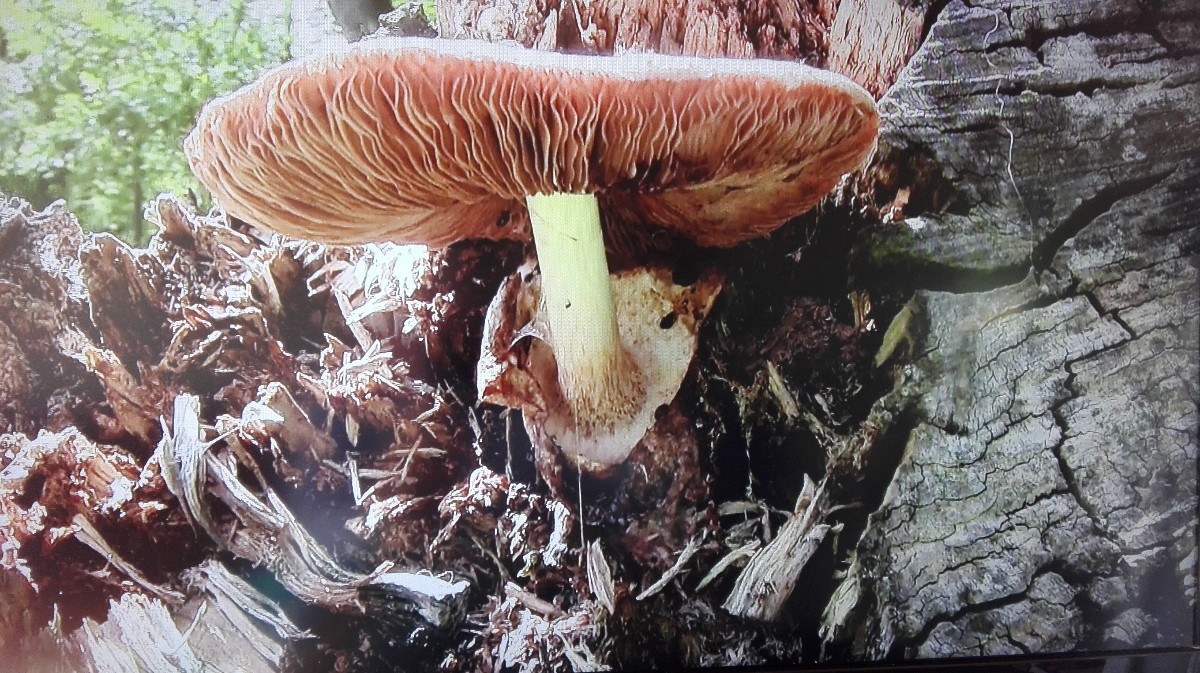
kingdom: Fungi
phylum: Basidiomycota
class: Agaricomycetes
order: Agaricales
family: Pluteaceae
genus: Volvariella
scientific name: Volvariella bombycina
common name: silkehåret posesvamp
